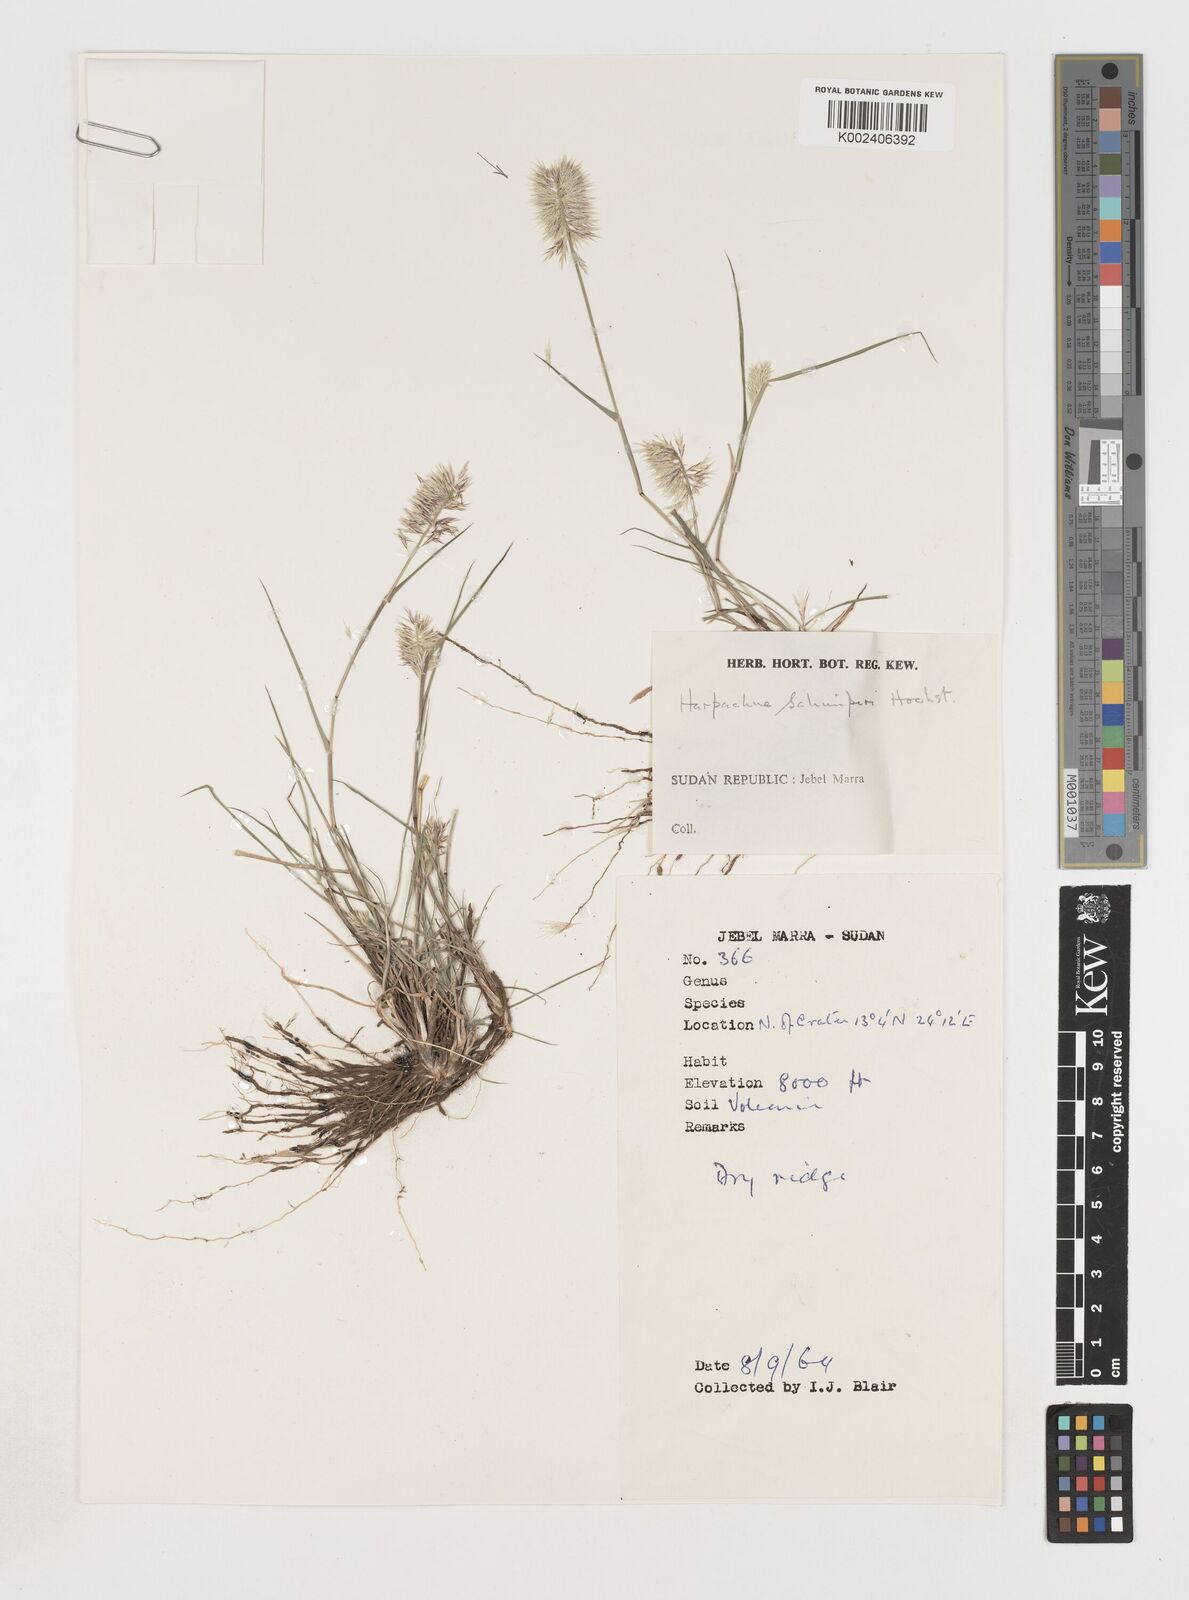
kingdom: Plantae
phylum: Tracheophyta
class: Liliopsida
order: Poales
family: Poaceae
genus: Harpachne
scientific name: Harpachne schimperi
